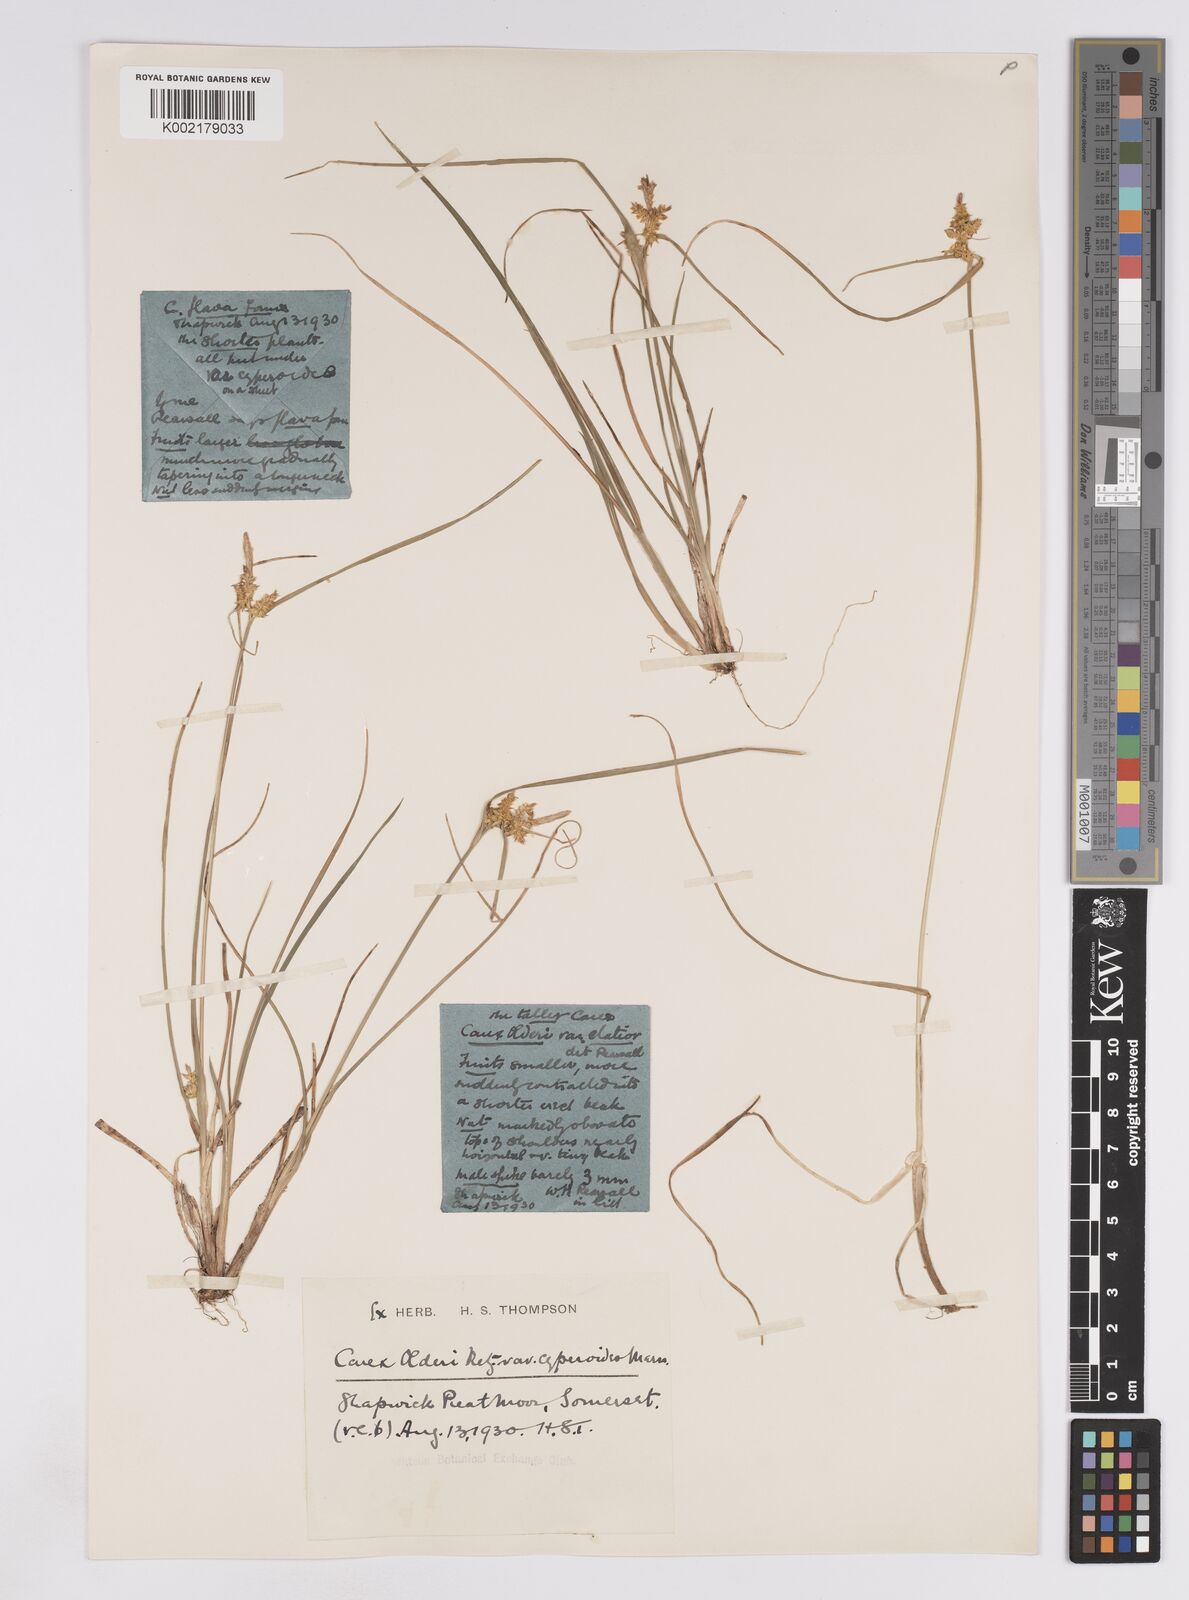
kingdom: Plantae
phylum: Tracheophyta
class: Liliopsida
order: Poales
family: Cyperaceae
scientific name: Cyperaceae
